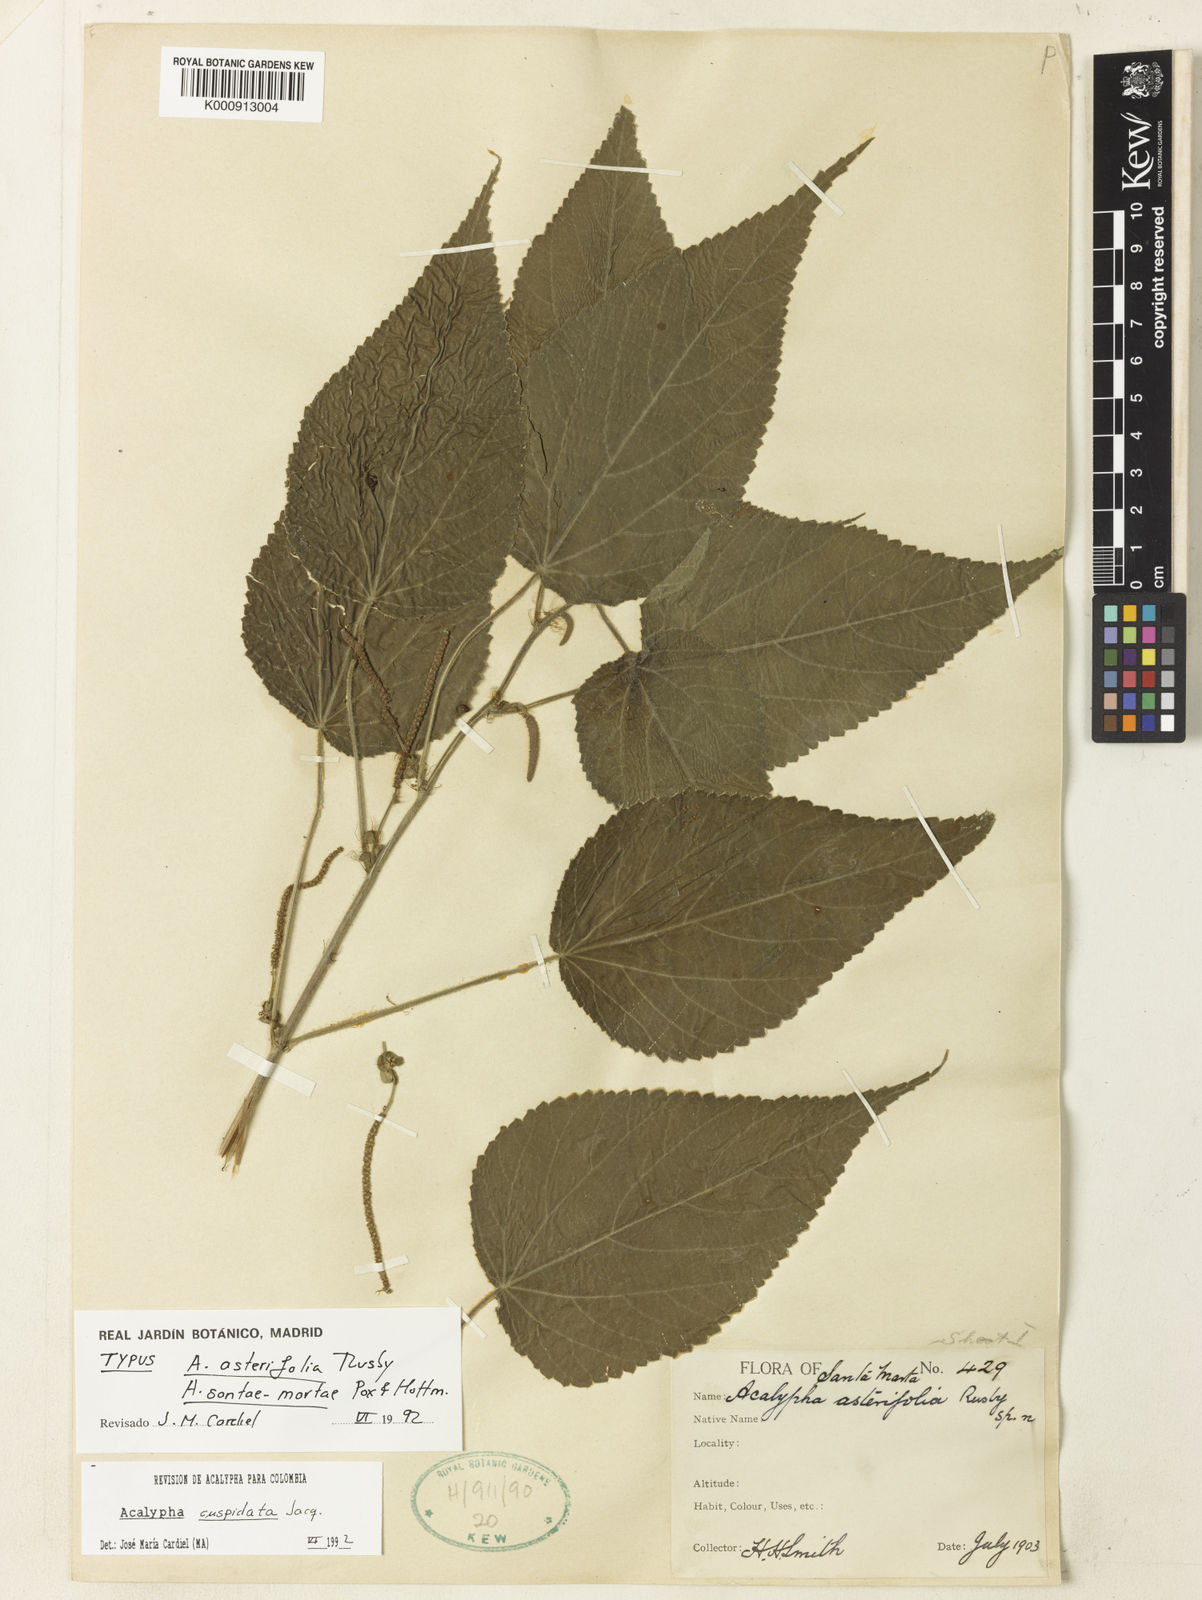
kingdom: Plantae
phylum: Tracheophyta
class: Magnoliopsida
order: Malpighiales
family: Euphorbiaceae
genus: Acalypha
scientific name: Acalypha cuspidata
